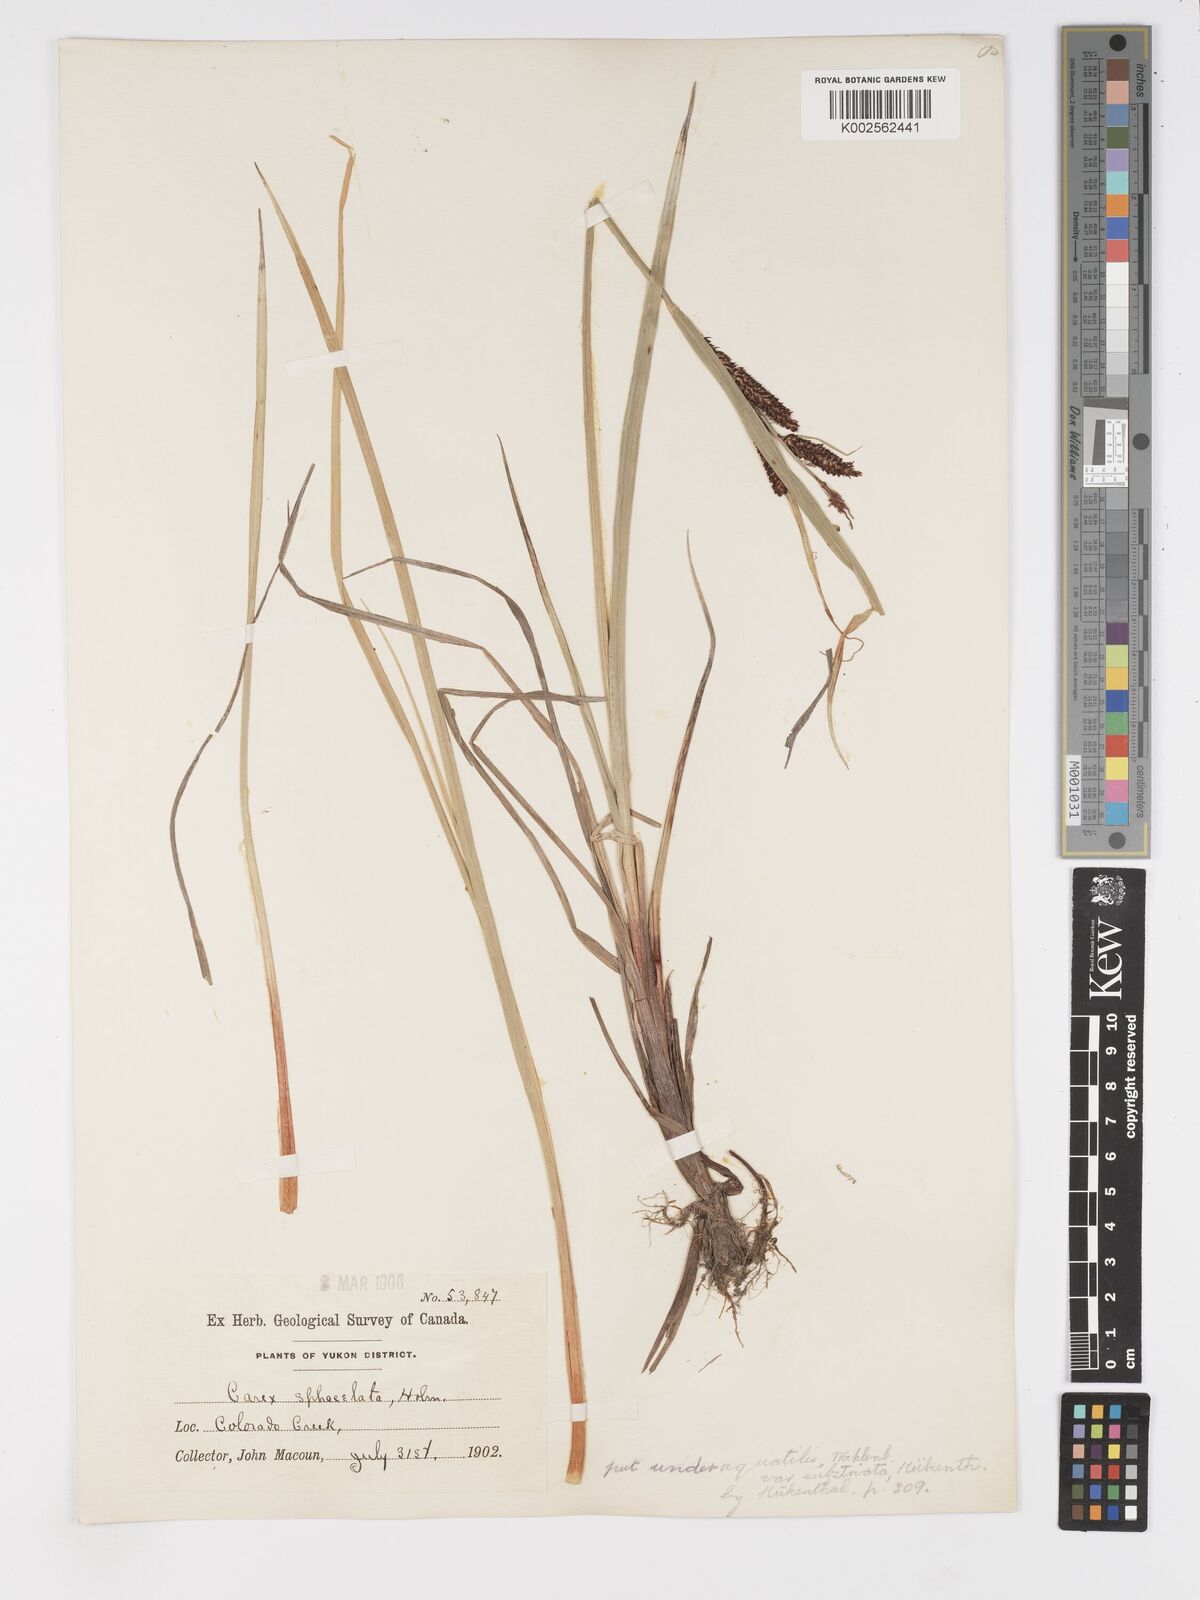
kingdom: Plantae
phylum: Tracheophyta
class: Liliopsida
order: Poales
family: Cyperaceae
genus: Carex
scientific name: Carex
